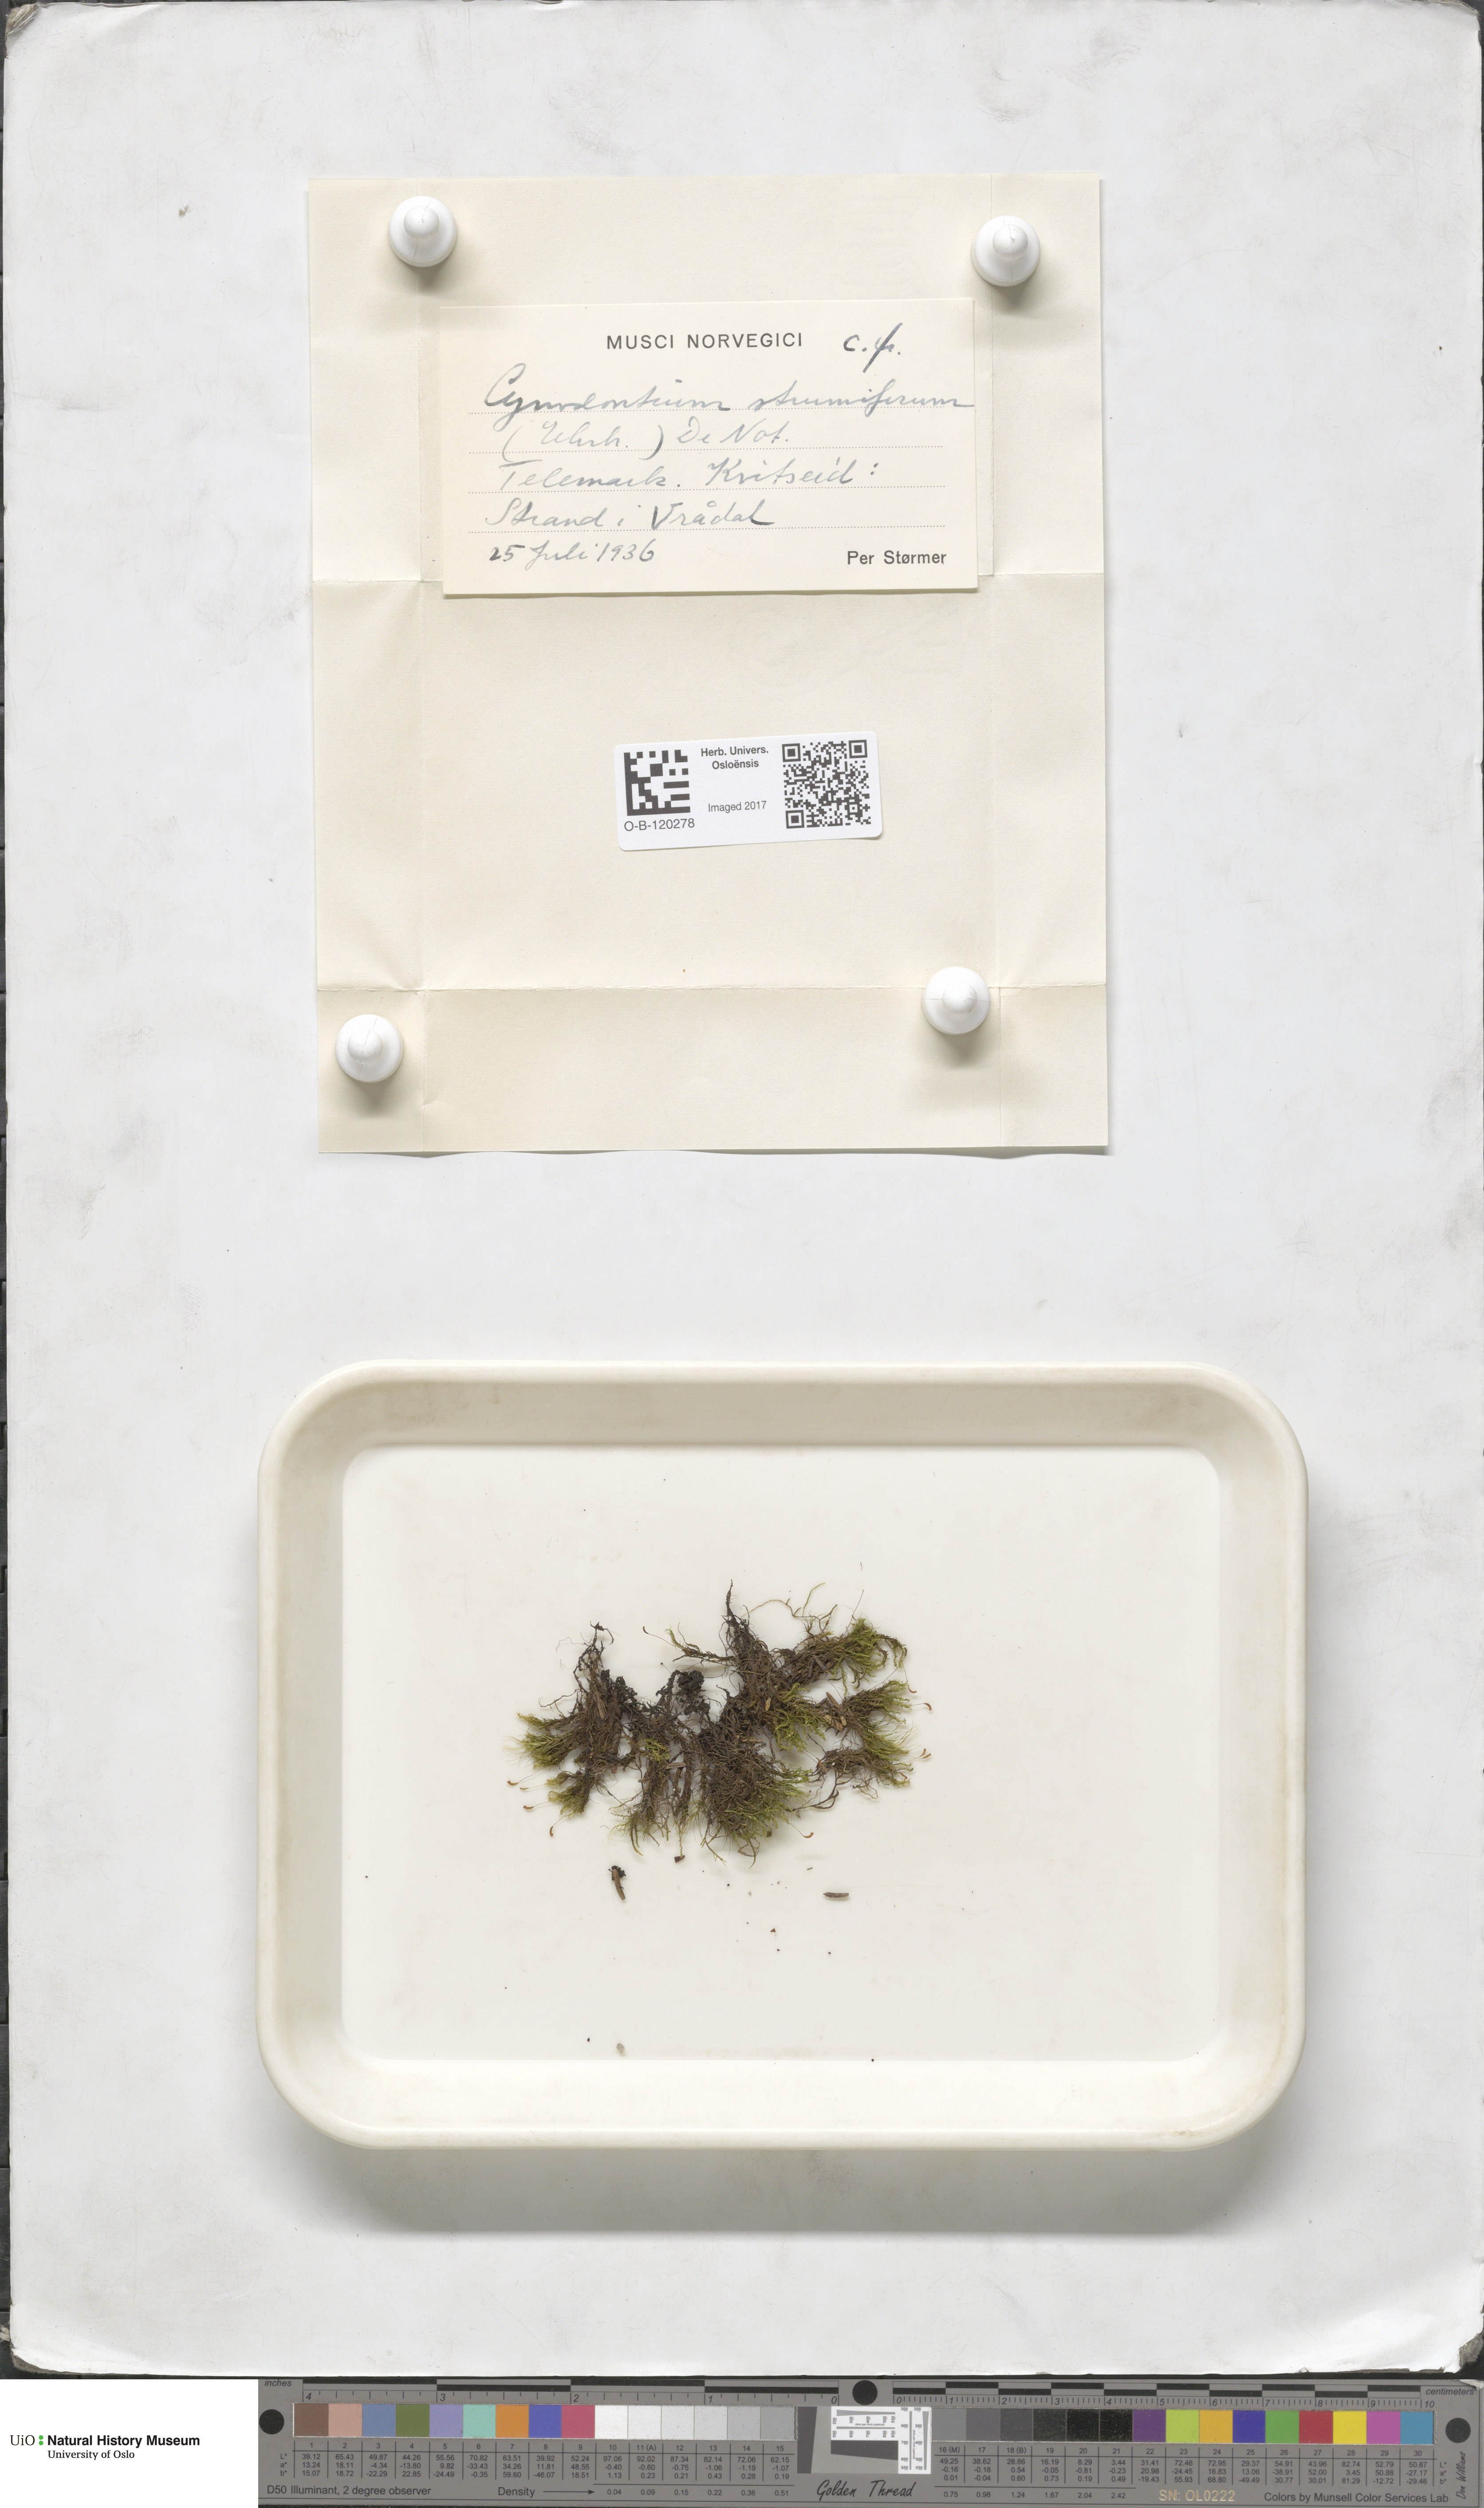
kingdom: Plantae
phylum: Bryophyta
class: Bryopsida
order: Dicranales
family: Rhabdoweisiaceae
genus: Cynodontium
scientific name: Cynodontium strumiferum
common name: Swollen dogtooth moss
